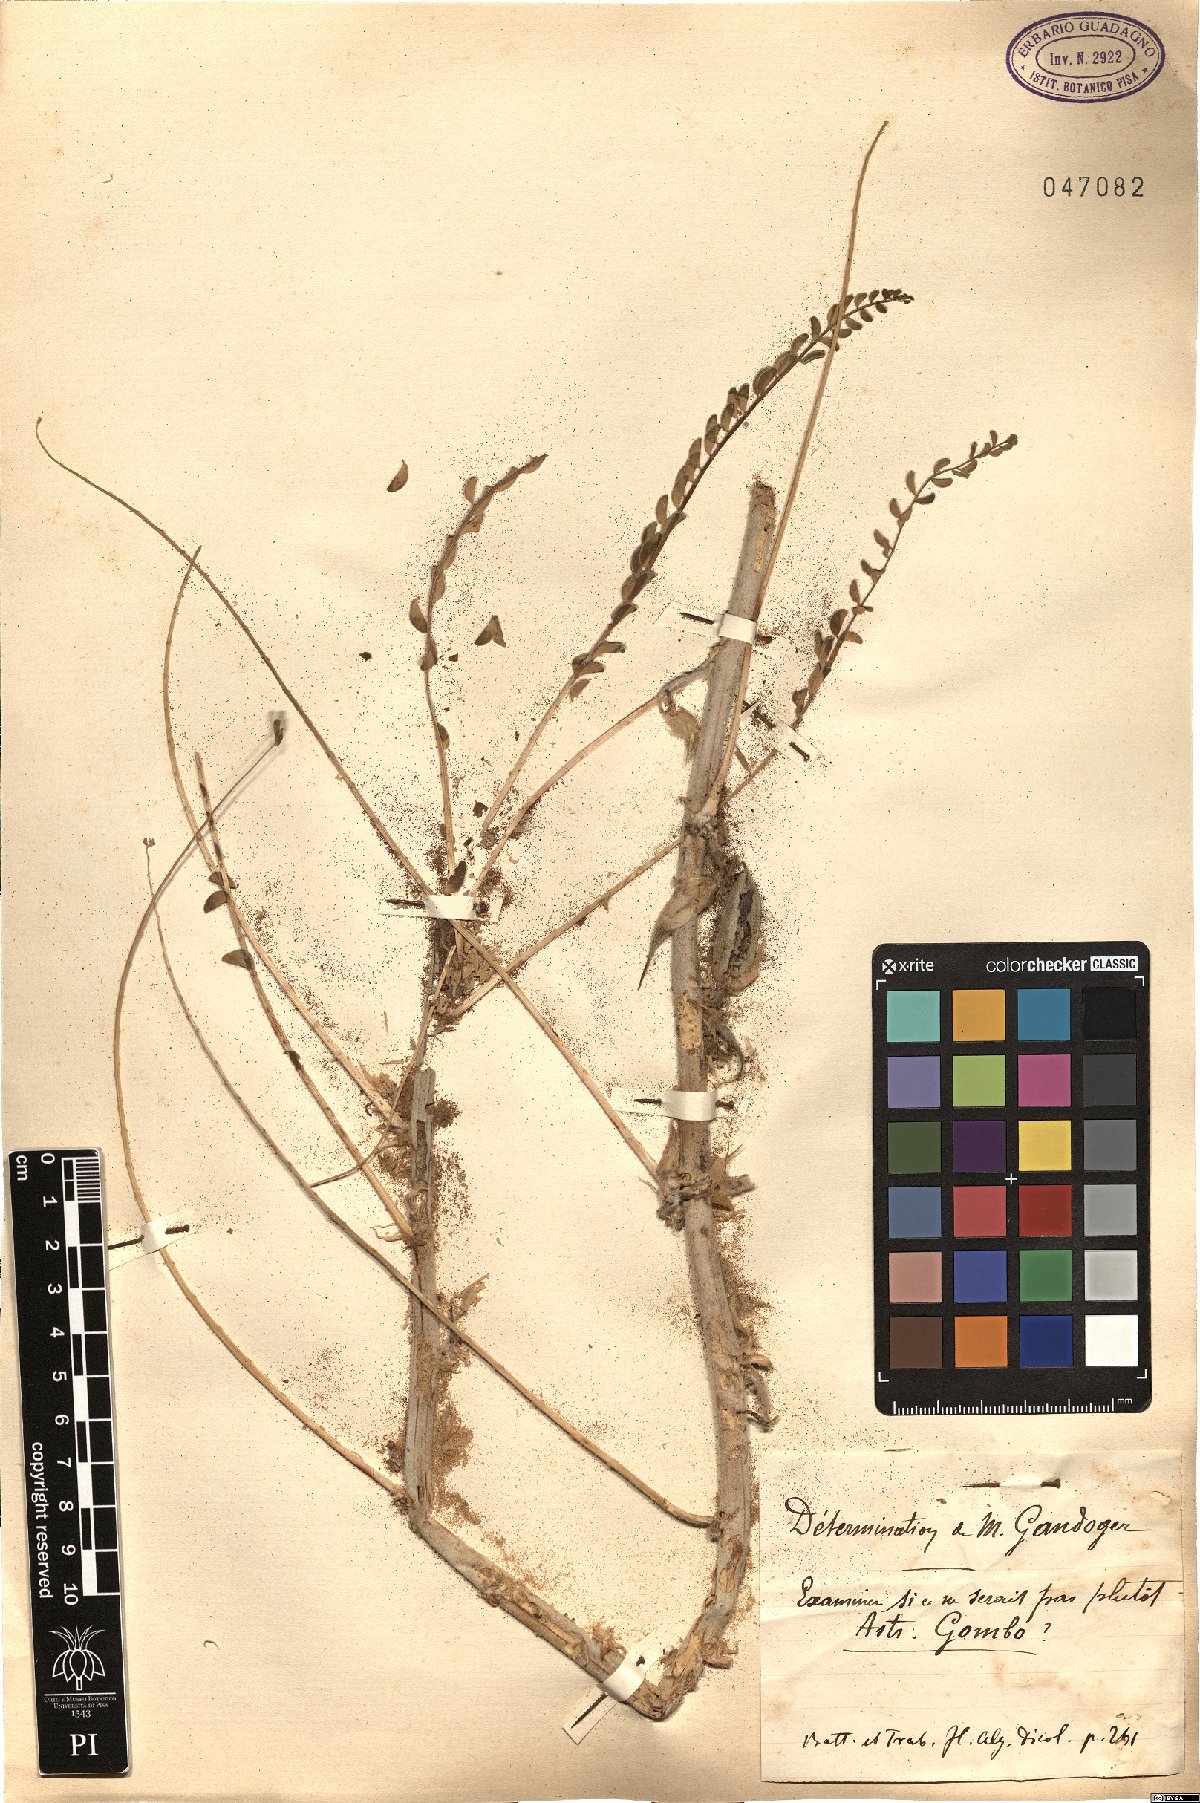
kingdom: Plantae
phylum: Tracheophyta
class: Magnoliopsida
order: Fabales
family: Fabaceae
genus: Astragalus
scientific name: Astragalus gombo
